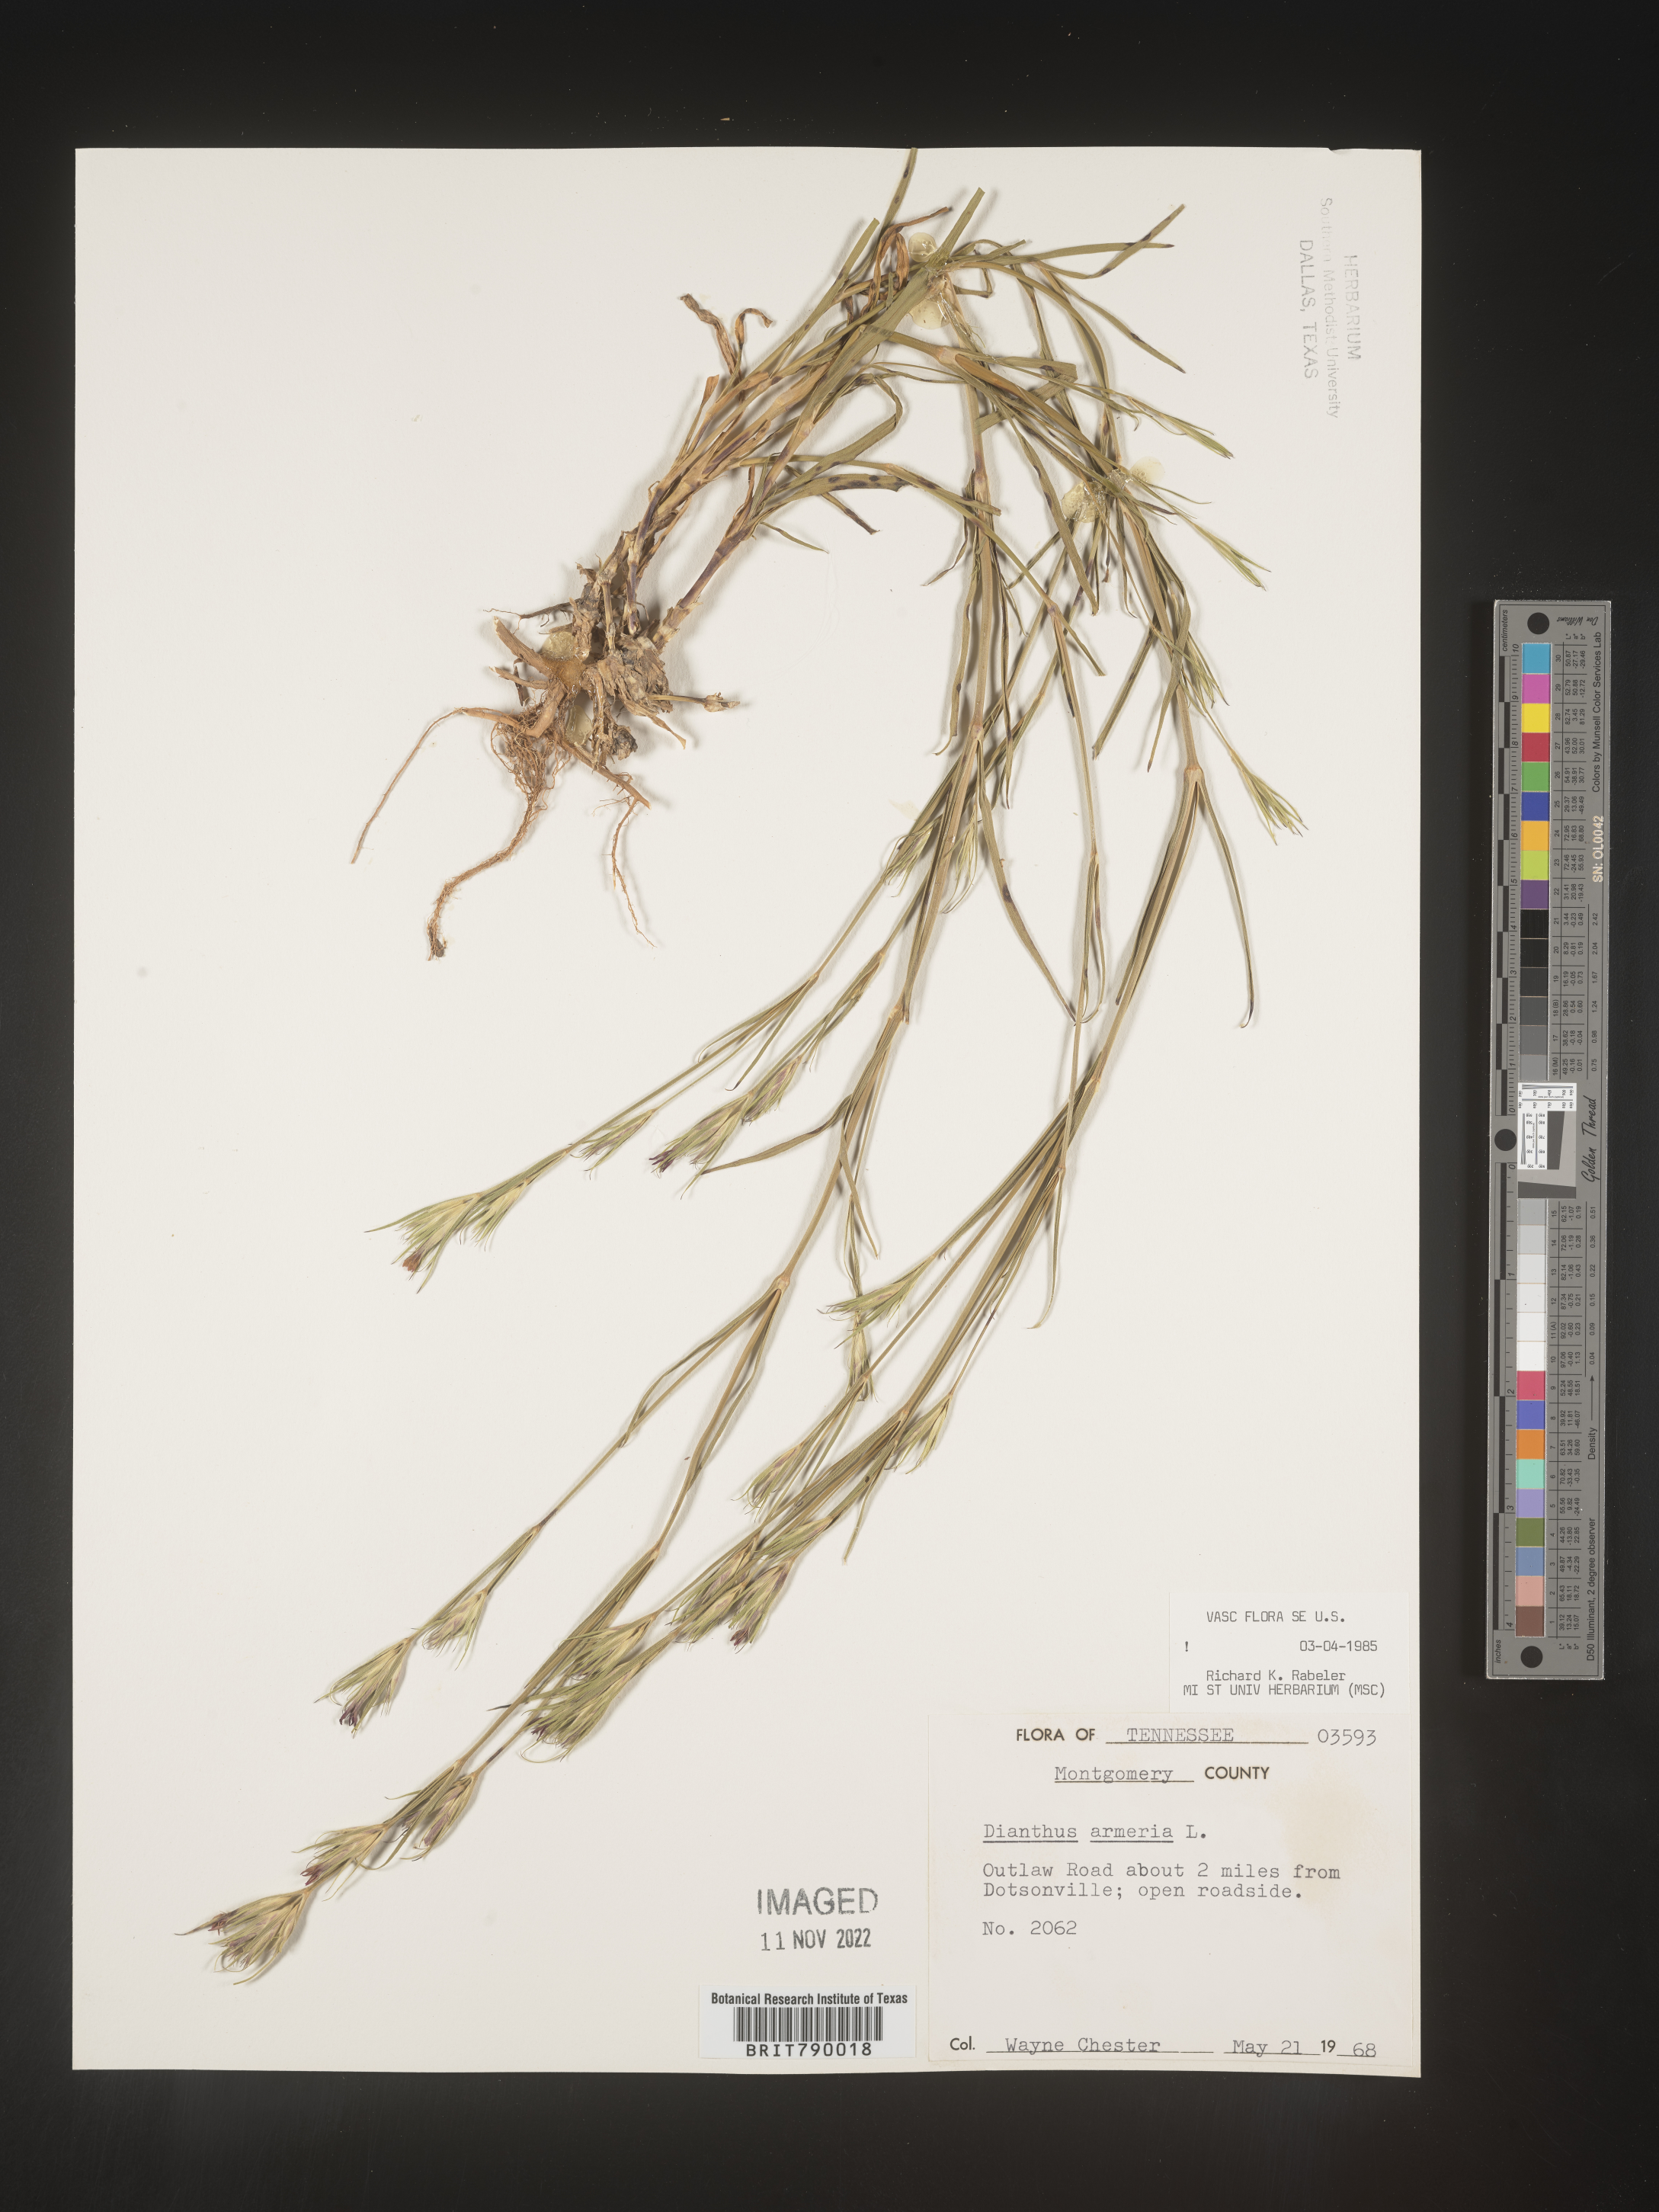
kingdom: Plantae
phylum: Tracheophyta
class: Magnoliopsida
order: Caryophyllales
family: Caryophyllaceae
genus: Dianthus
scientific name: Dianthus armeria
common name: Deptford pink
